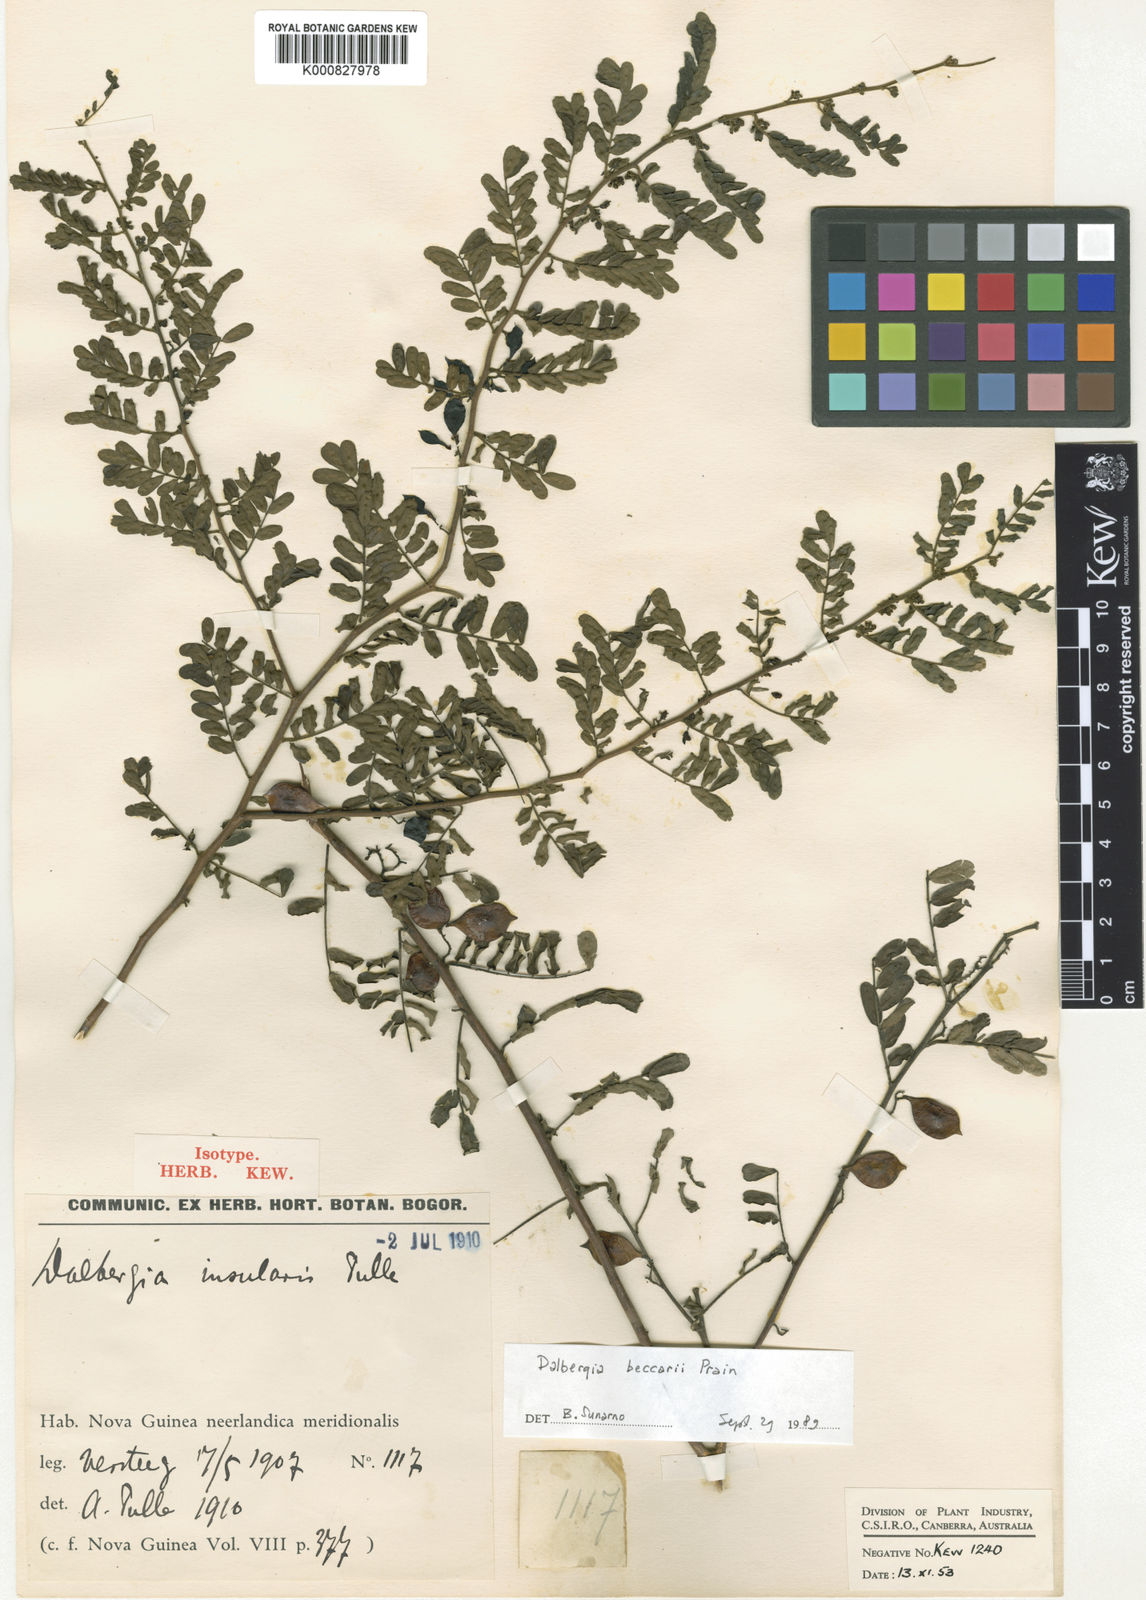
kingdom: Plantae
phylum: Tracheophyta
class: Magnoliopsida
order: Fabales
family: Fabaceae
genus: Dalbergia
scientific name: Dalbergia beccarii
